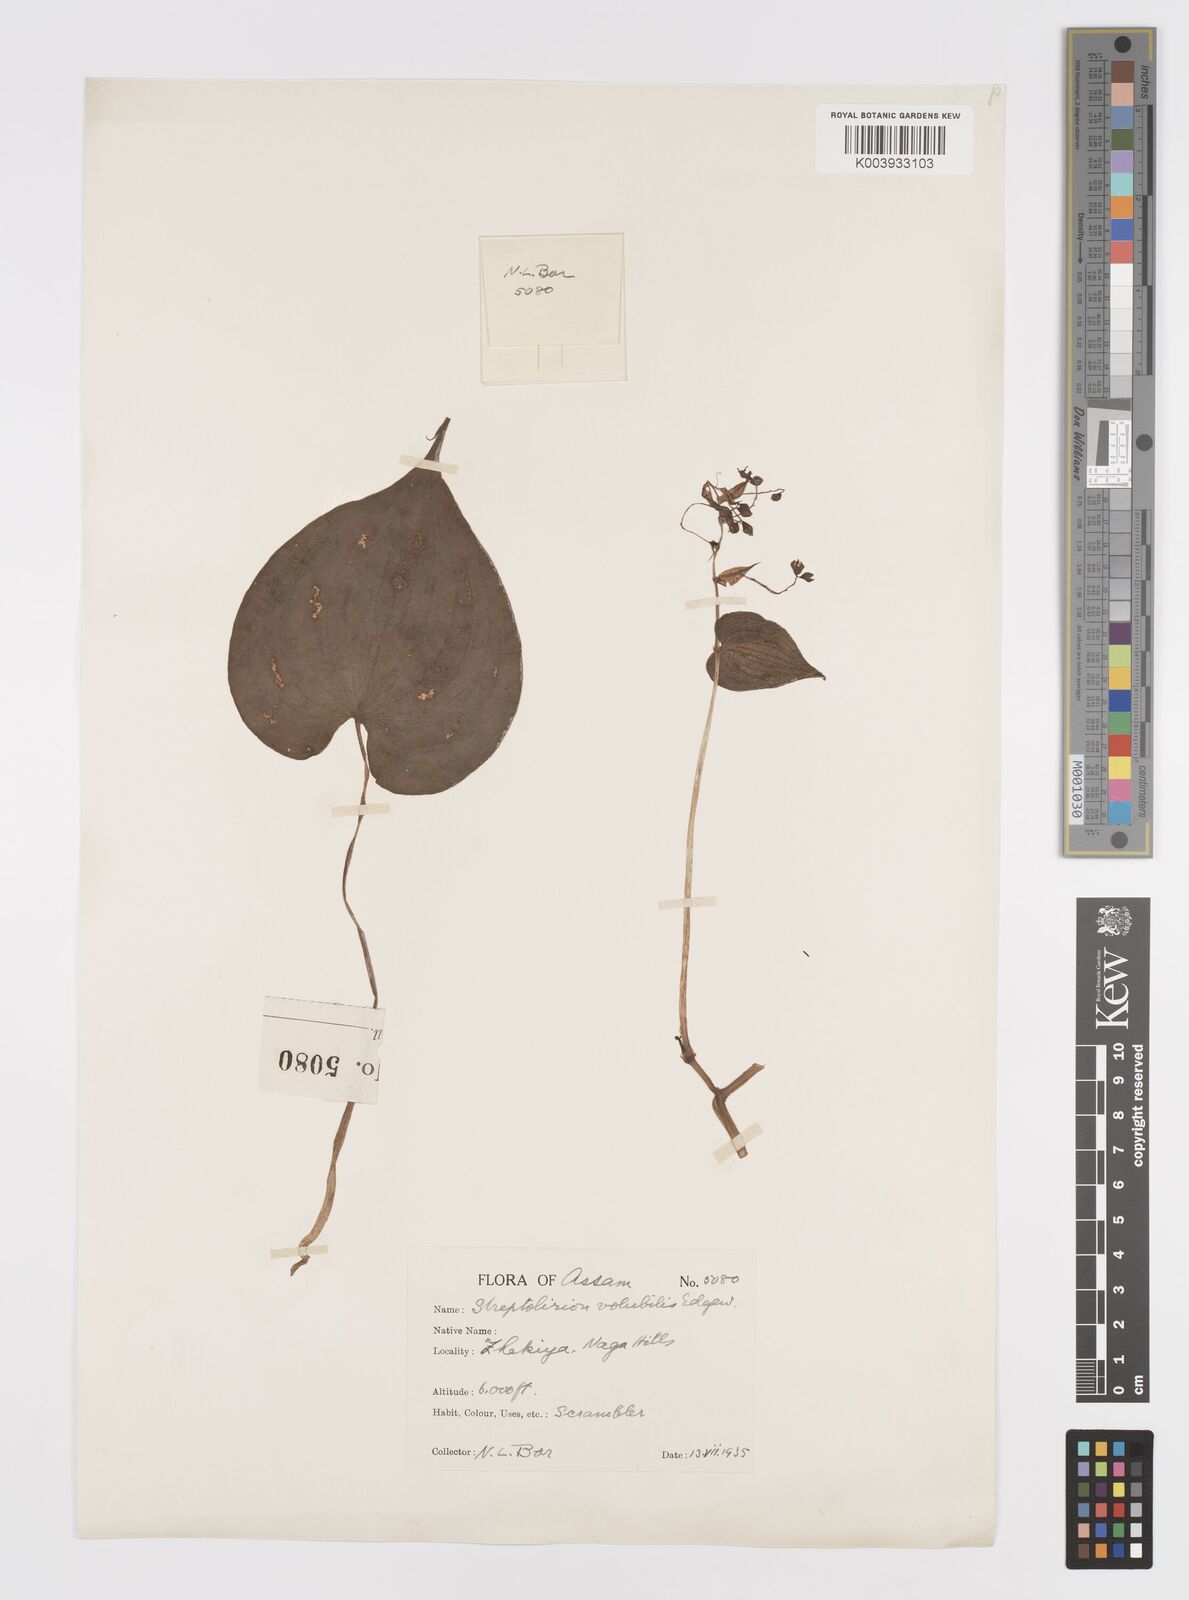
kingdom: Plantae
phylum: Tracheophyta
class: Liliopsida
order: Commelinales
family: Commelinaceae
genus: Streptolirion
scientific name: Streptolirion volubile
